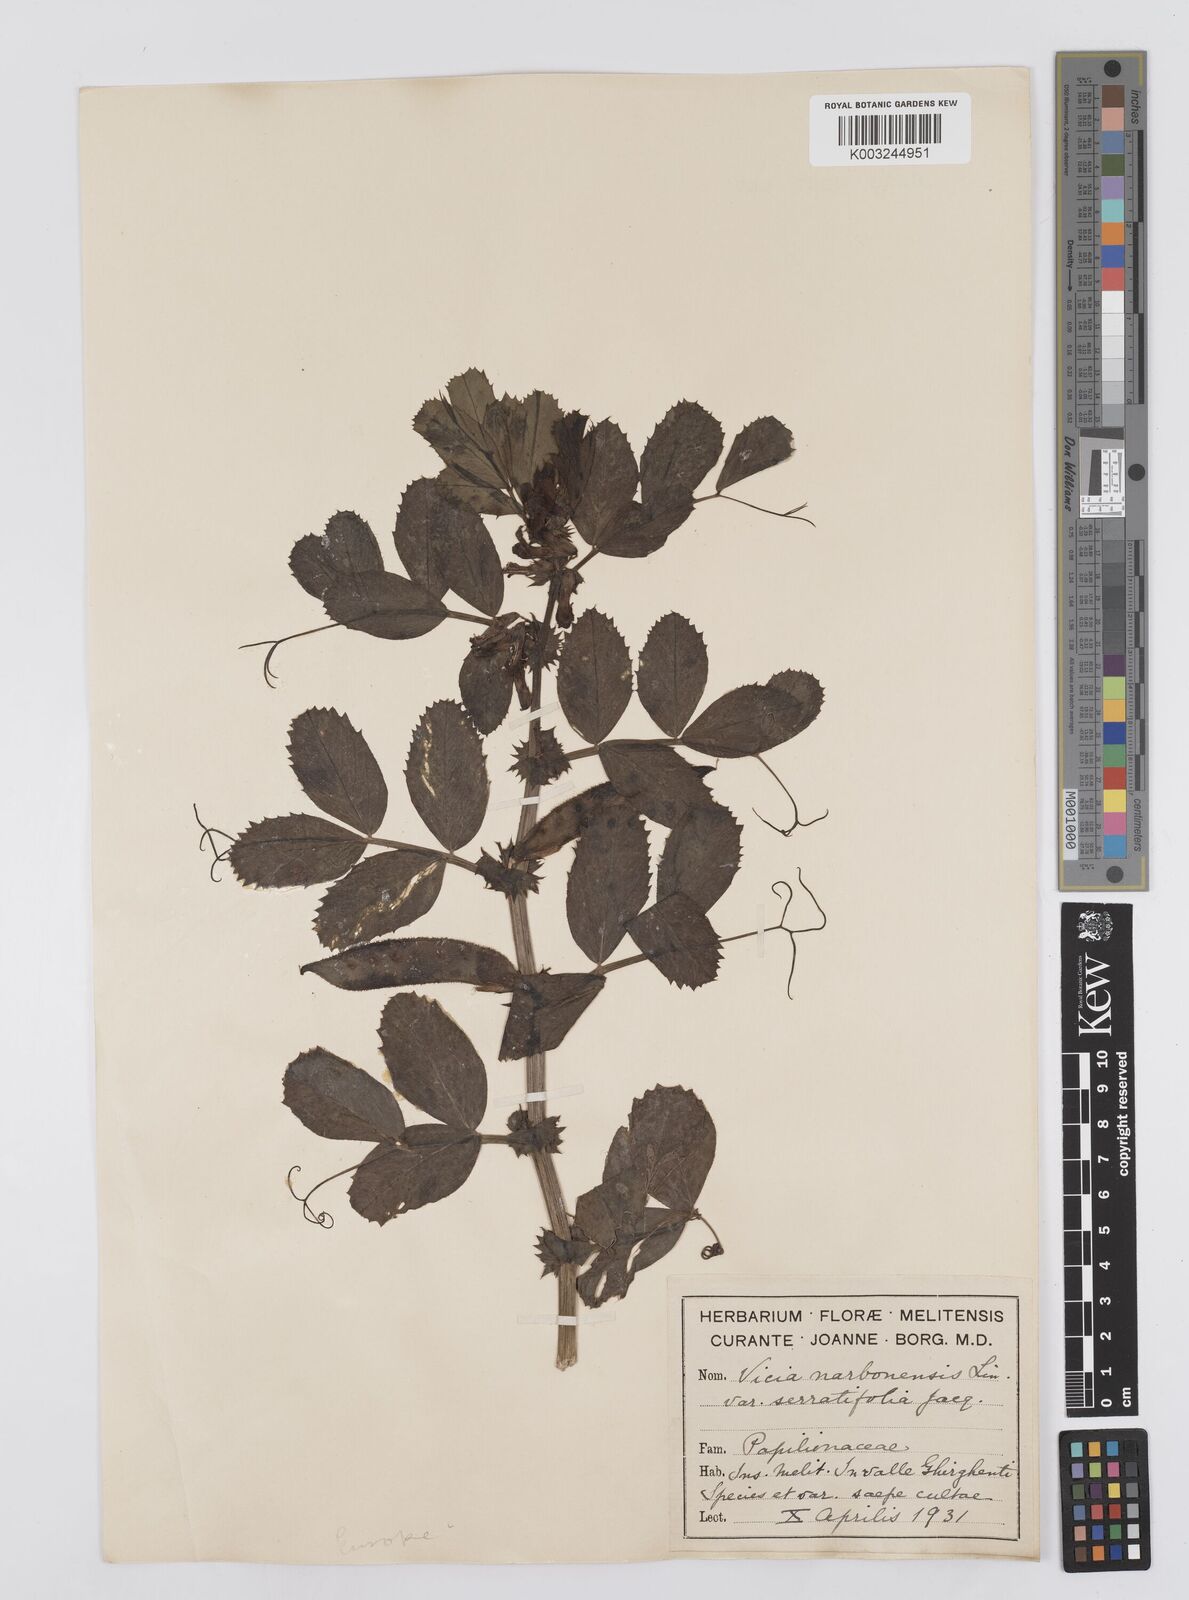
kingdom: Plantae
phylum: Tracheophyta
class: Magnoliopsida
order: Fabales
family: Fabaceae
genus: Vicia
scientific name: Vicia serratifolia
